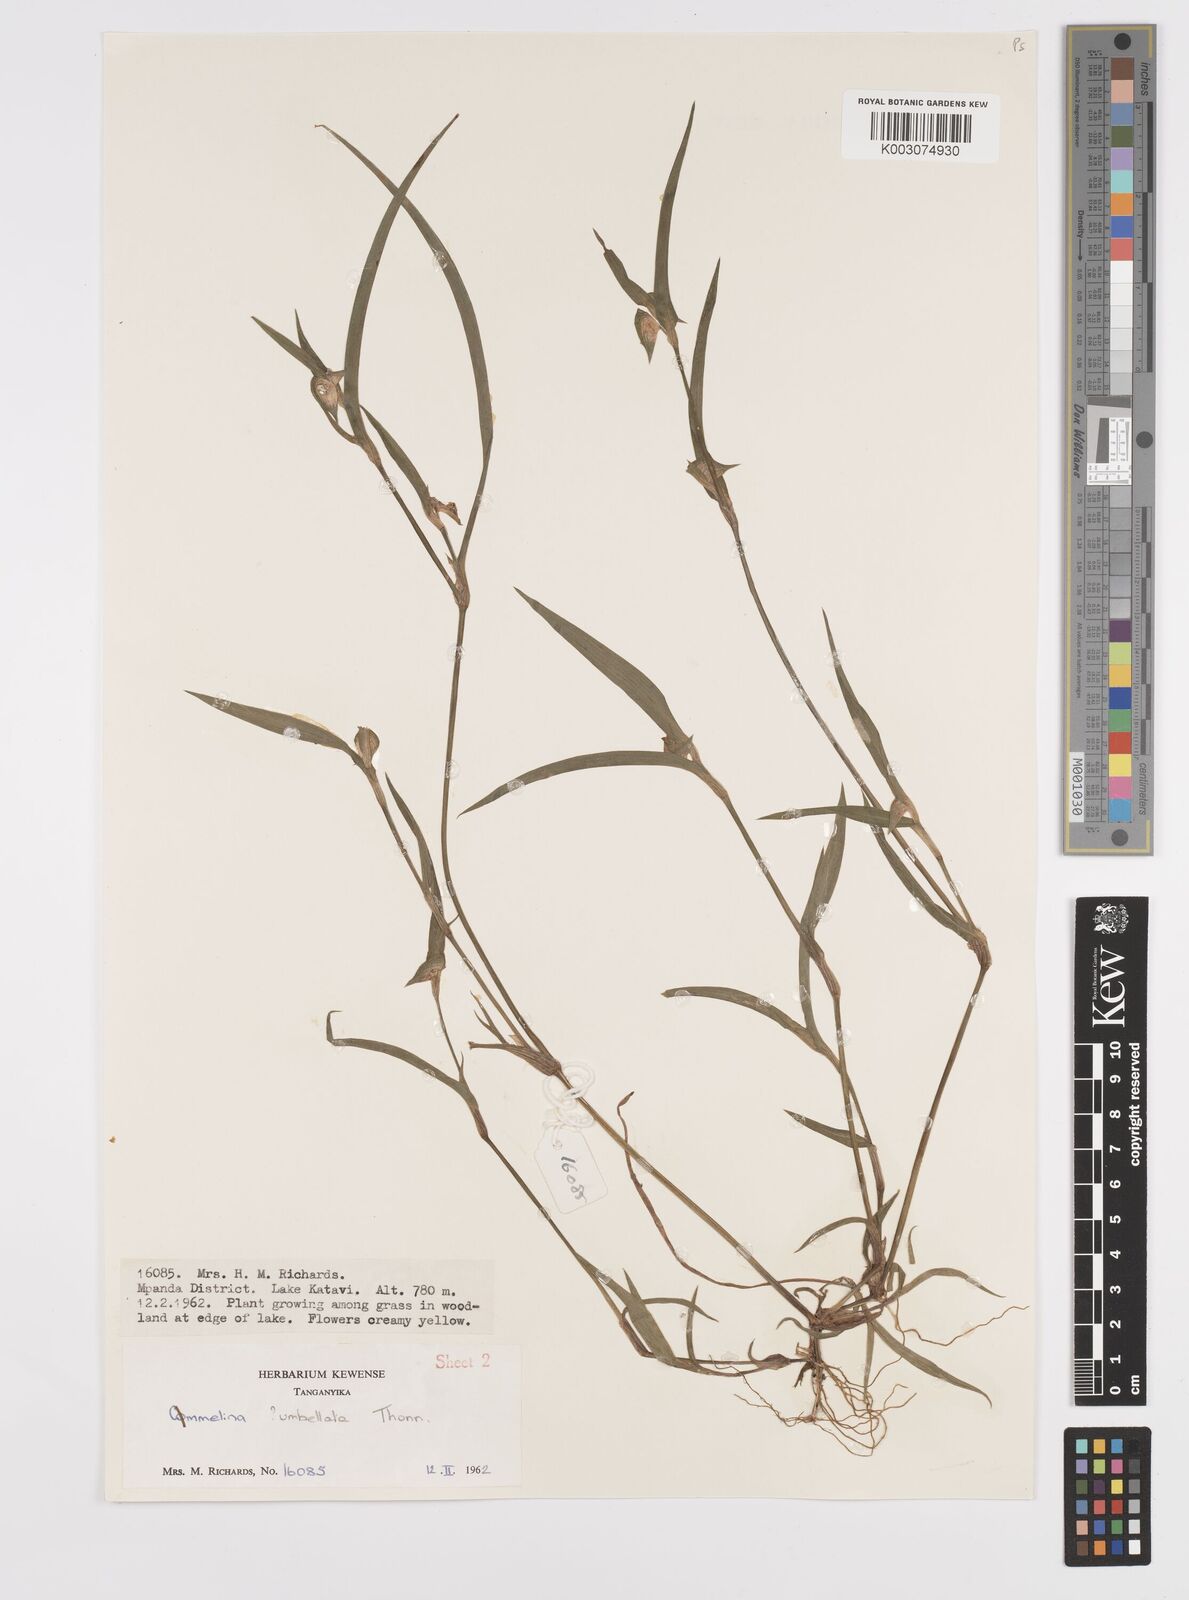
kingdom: Plantae
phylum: Tracheophyta
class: Liliopsida
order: Commelinales
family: Commelinaceae
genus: Commelina
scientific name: Commelina nigritana
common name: African dayflower
